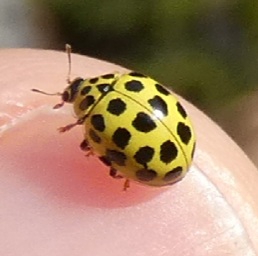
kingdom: Animalia
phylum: Arthropoda
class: Insecta
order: Coleoptera
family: Coccinellidae
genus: Psyllobora
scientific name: Psyllobora vigintiduopunctata
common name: Toogtyveplettet mariehøne
